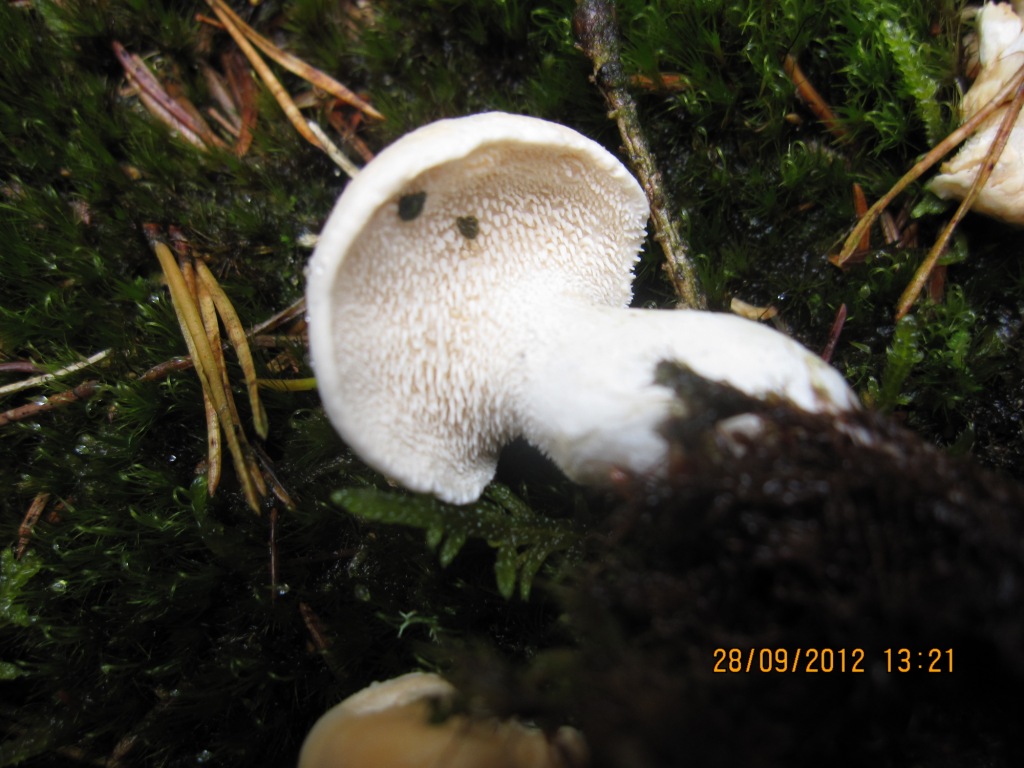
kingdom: Fungi
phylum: Basidiomycota
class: Agaricomycetes
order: Cantharellales
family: Hydnaceae
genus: Hydnum
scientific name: Hydnum repandum
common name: almindelig pigsvamp
